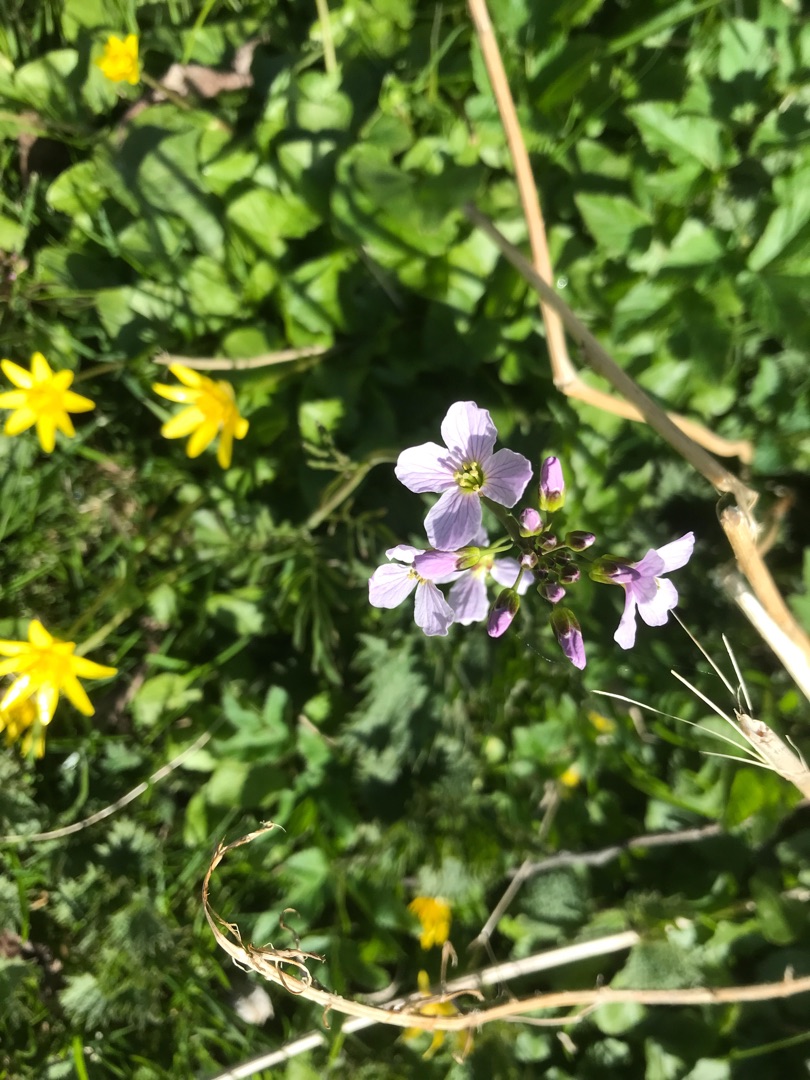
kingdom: Plantae
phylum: Tracheophyta
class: Magnoliopsida
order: Brassicales
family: Brassicaceae
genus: Cardamine
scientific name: Cardamine pratensis
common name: Engkarse
